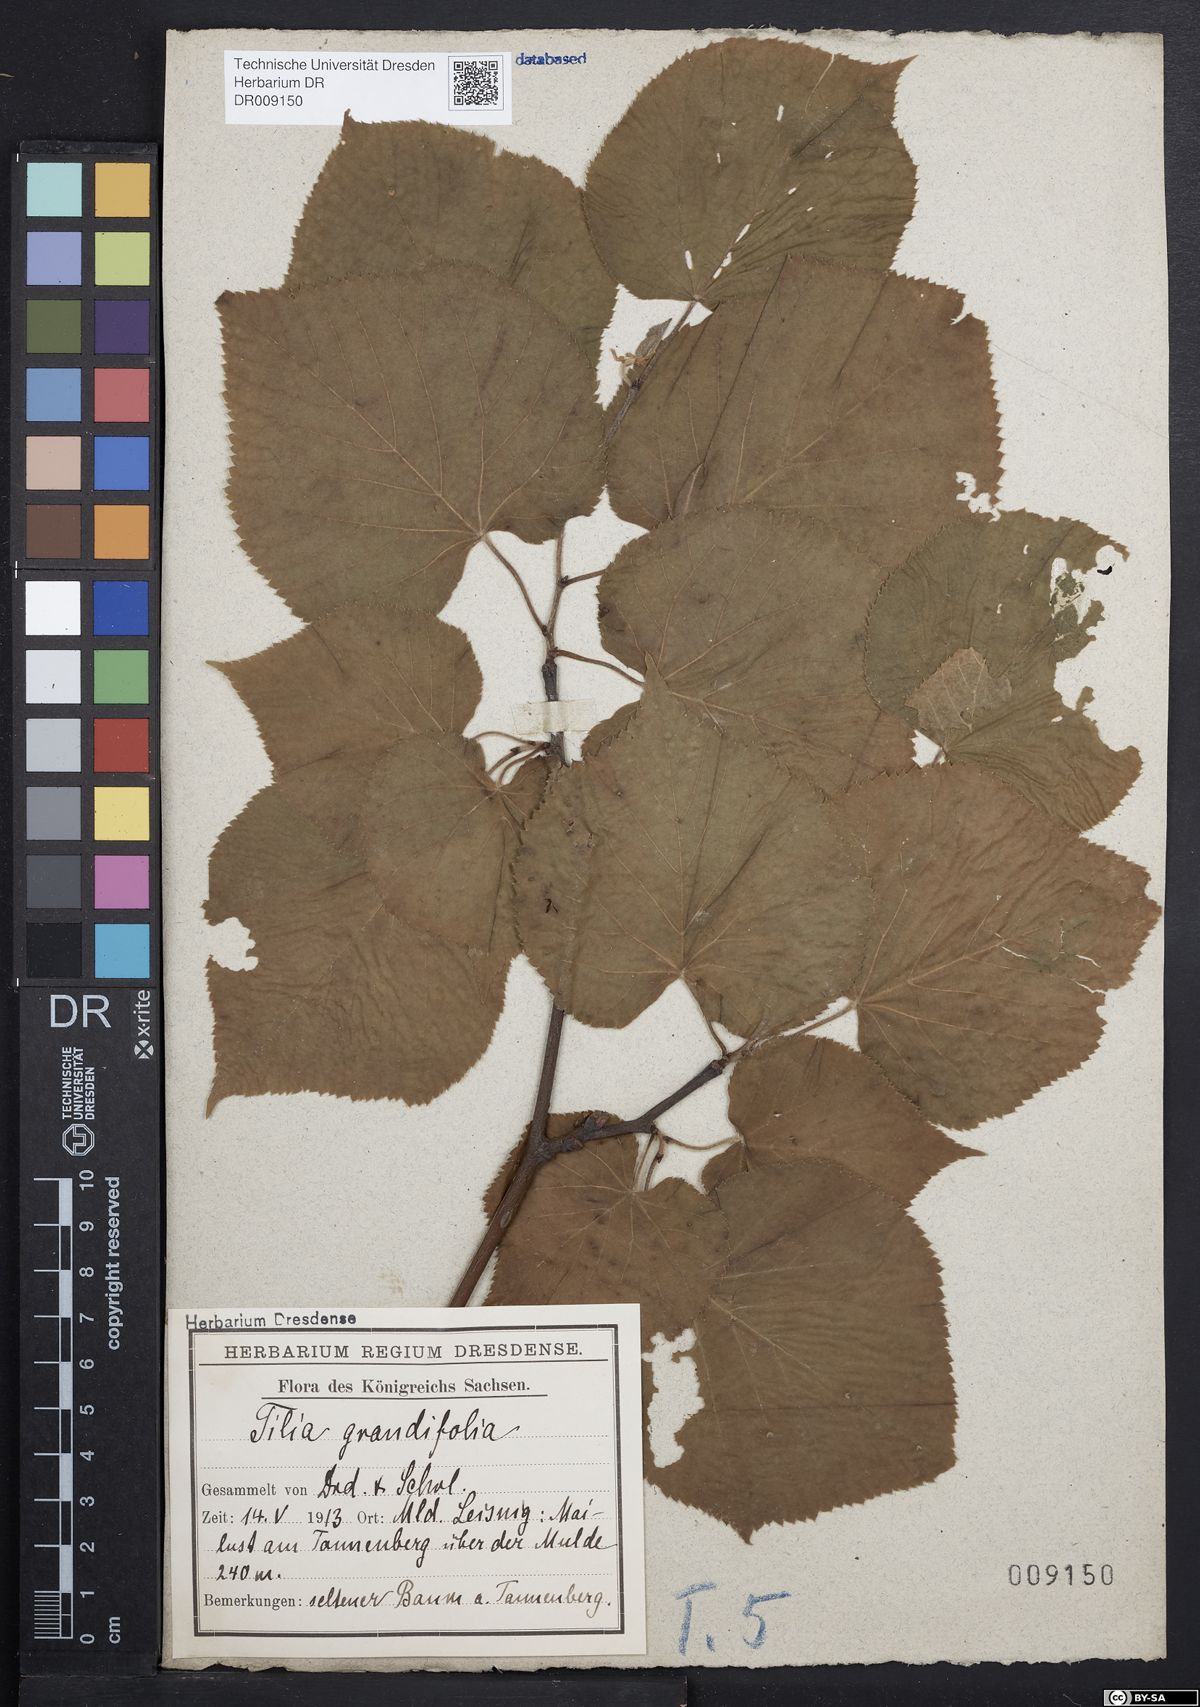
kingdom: Plantae
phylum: Tracheophyta
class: Magnoliopsida
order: Malvales
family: Malvaceae
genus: Tilia
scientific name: Tilia platyphyllos
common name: Large-leaved lime
